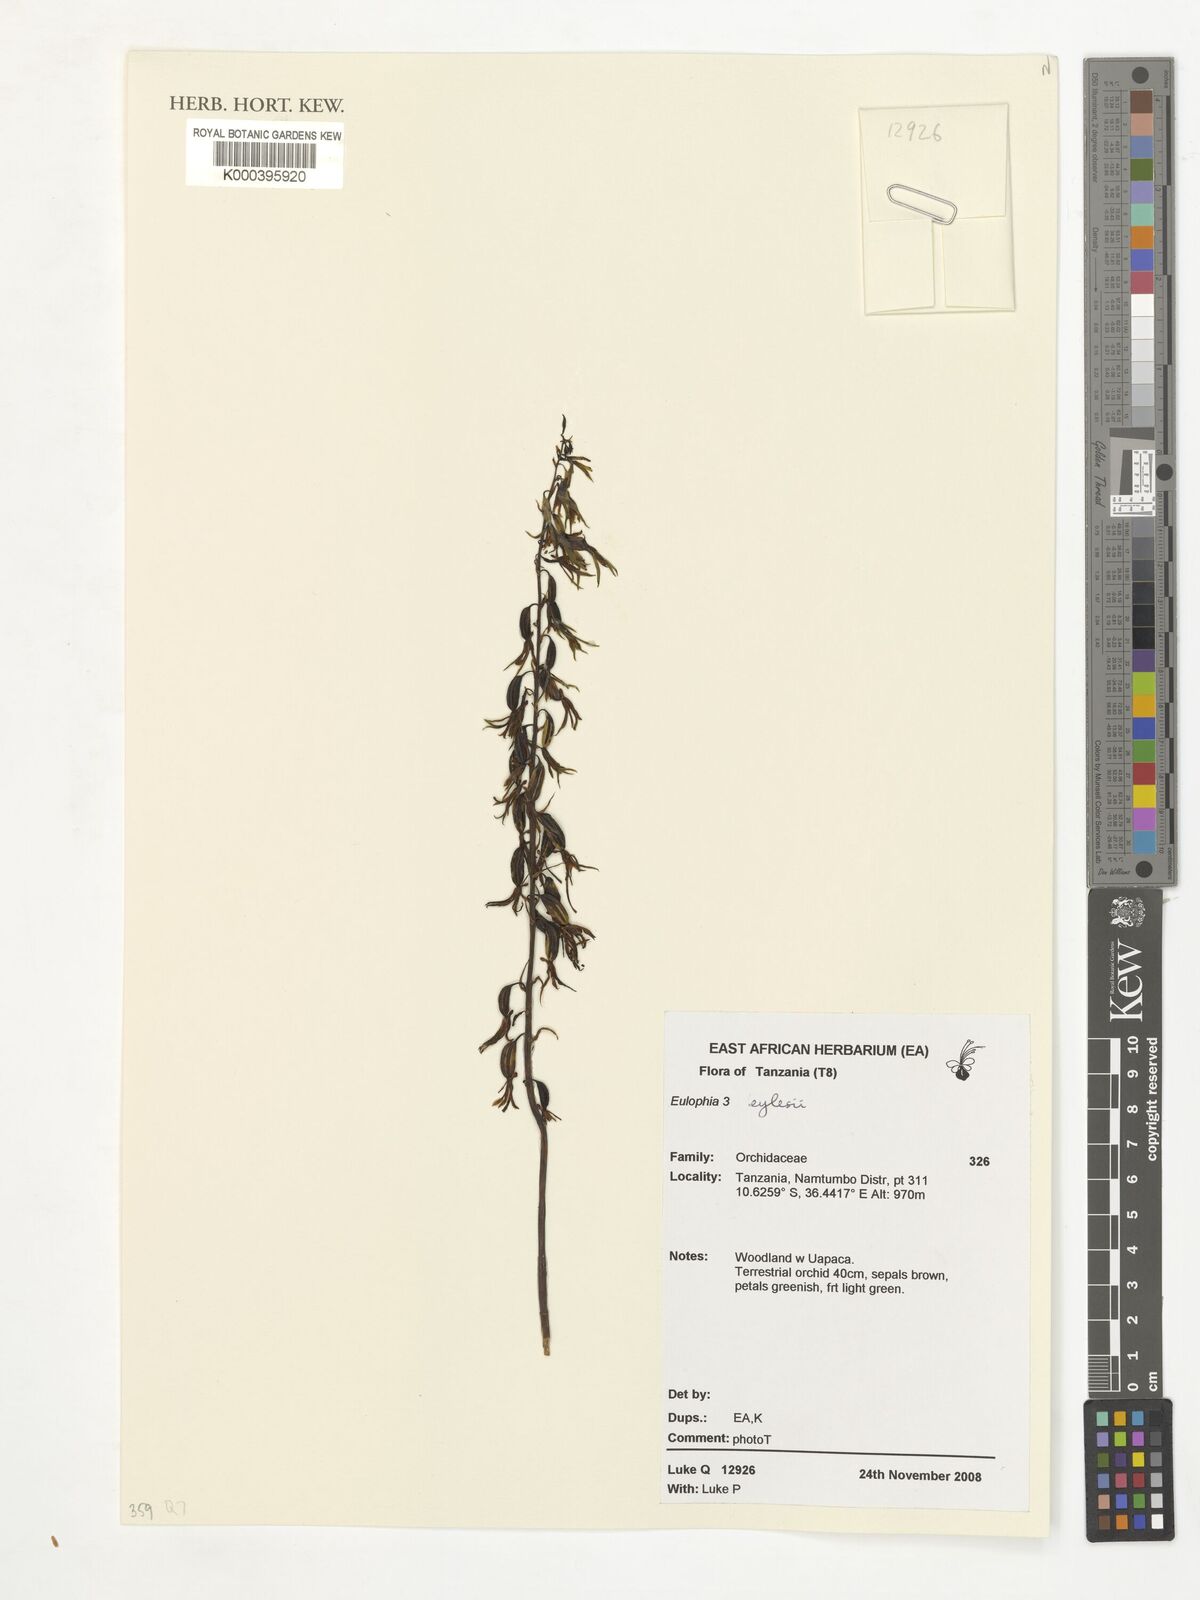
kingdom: Plantae
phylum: Tracheophyta
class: Liliopsida
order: Asparagales
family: Orchidaceae
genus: Eulophia
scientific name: Eulophia
